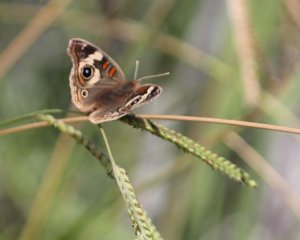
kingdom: Animalia
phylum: Arthropoda
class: Insecta
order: Lepidoptera
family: Nymphalidae
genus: Junonia
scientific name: Junonia coenia
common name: Common Buckeye
